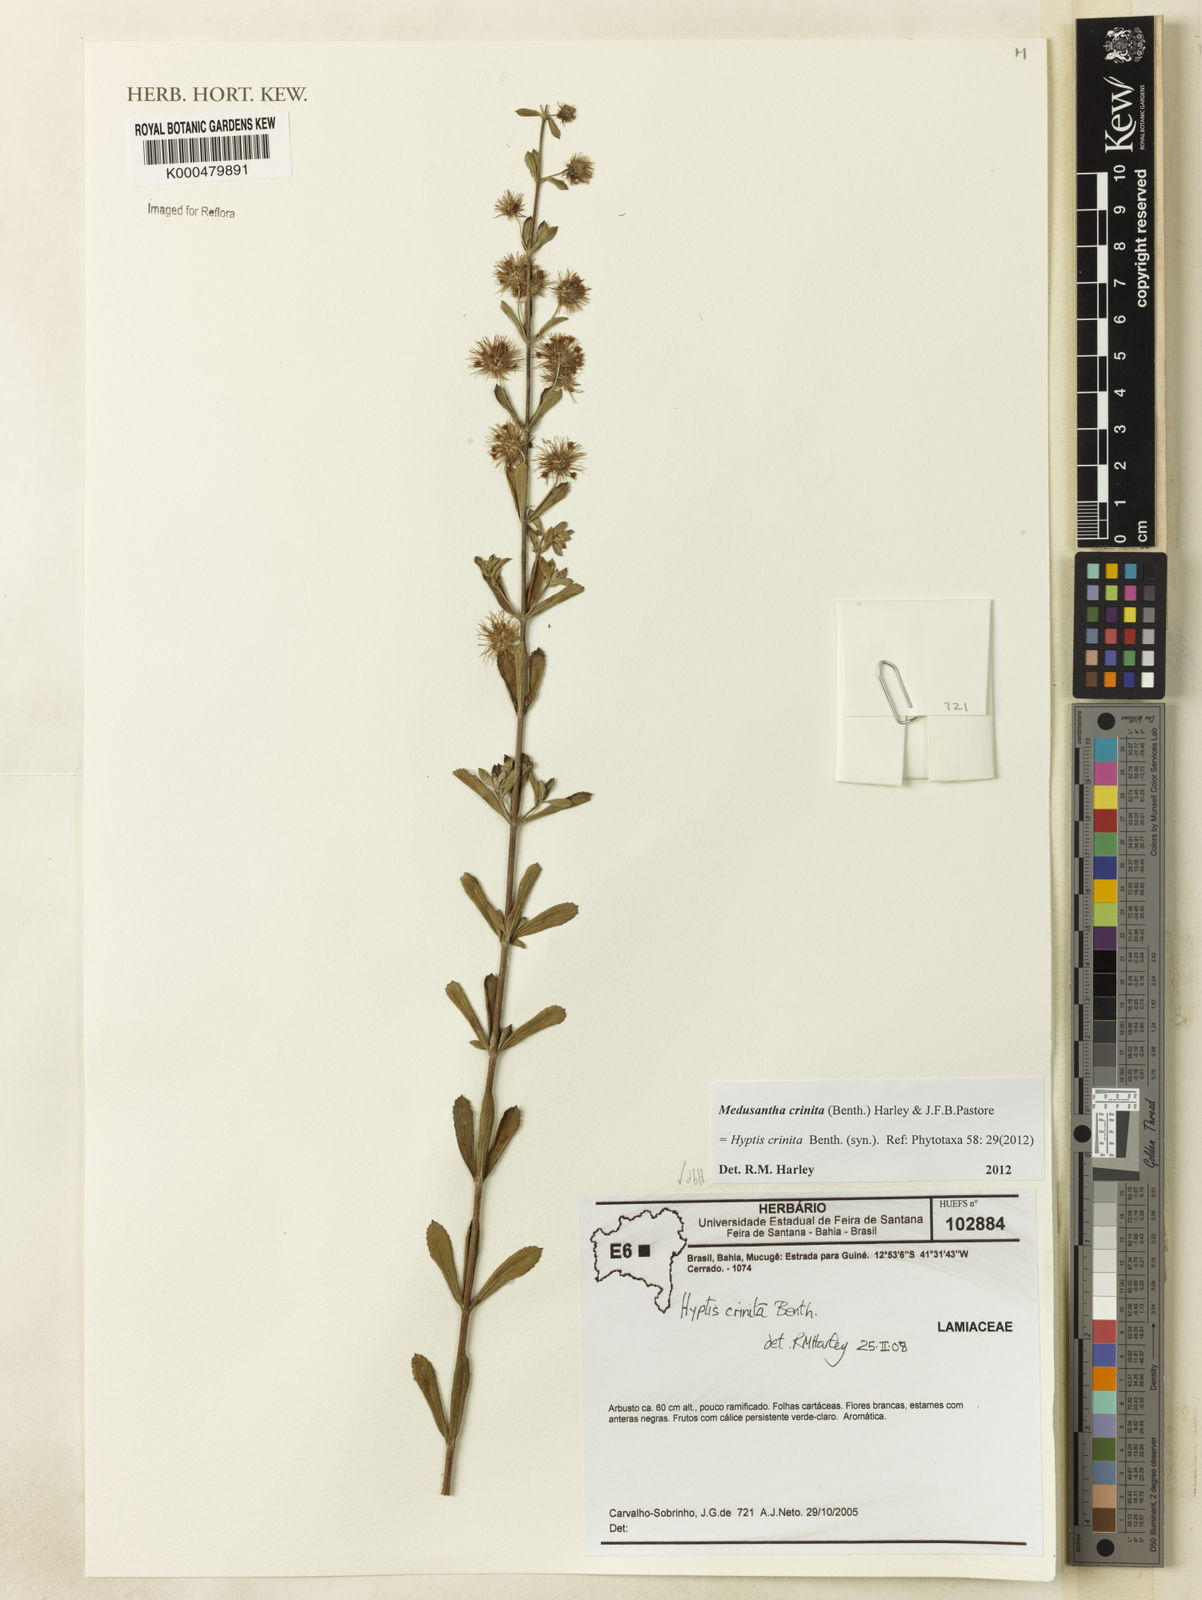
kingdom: Plantae
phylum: Tracheophyta
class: Magnoliopsida
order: Lamiales
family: Lamiaceae
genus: Medusantha
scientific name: Medusantha crinita
